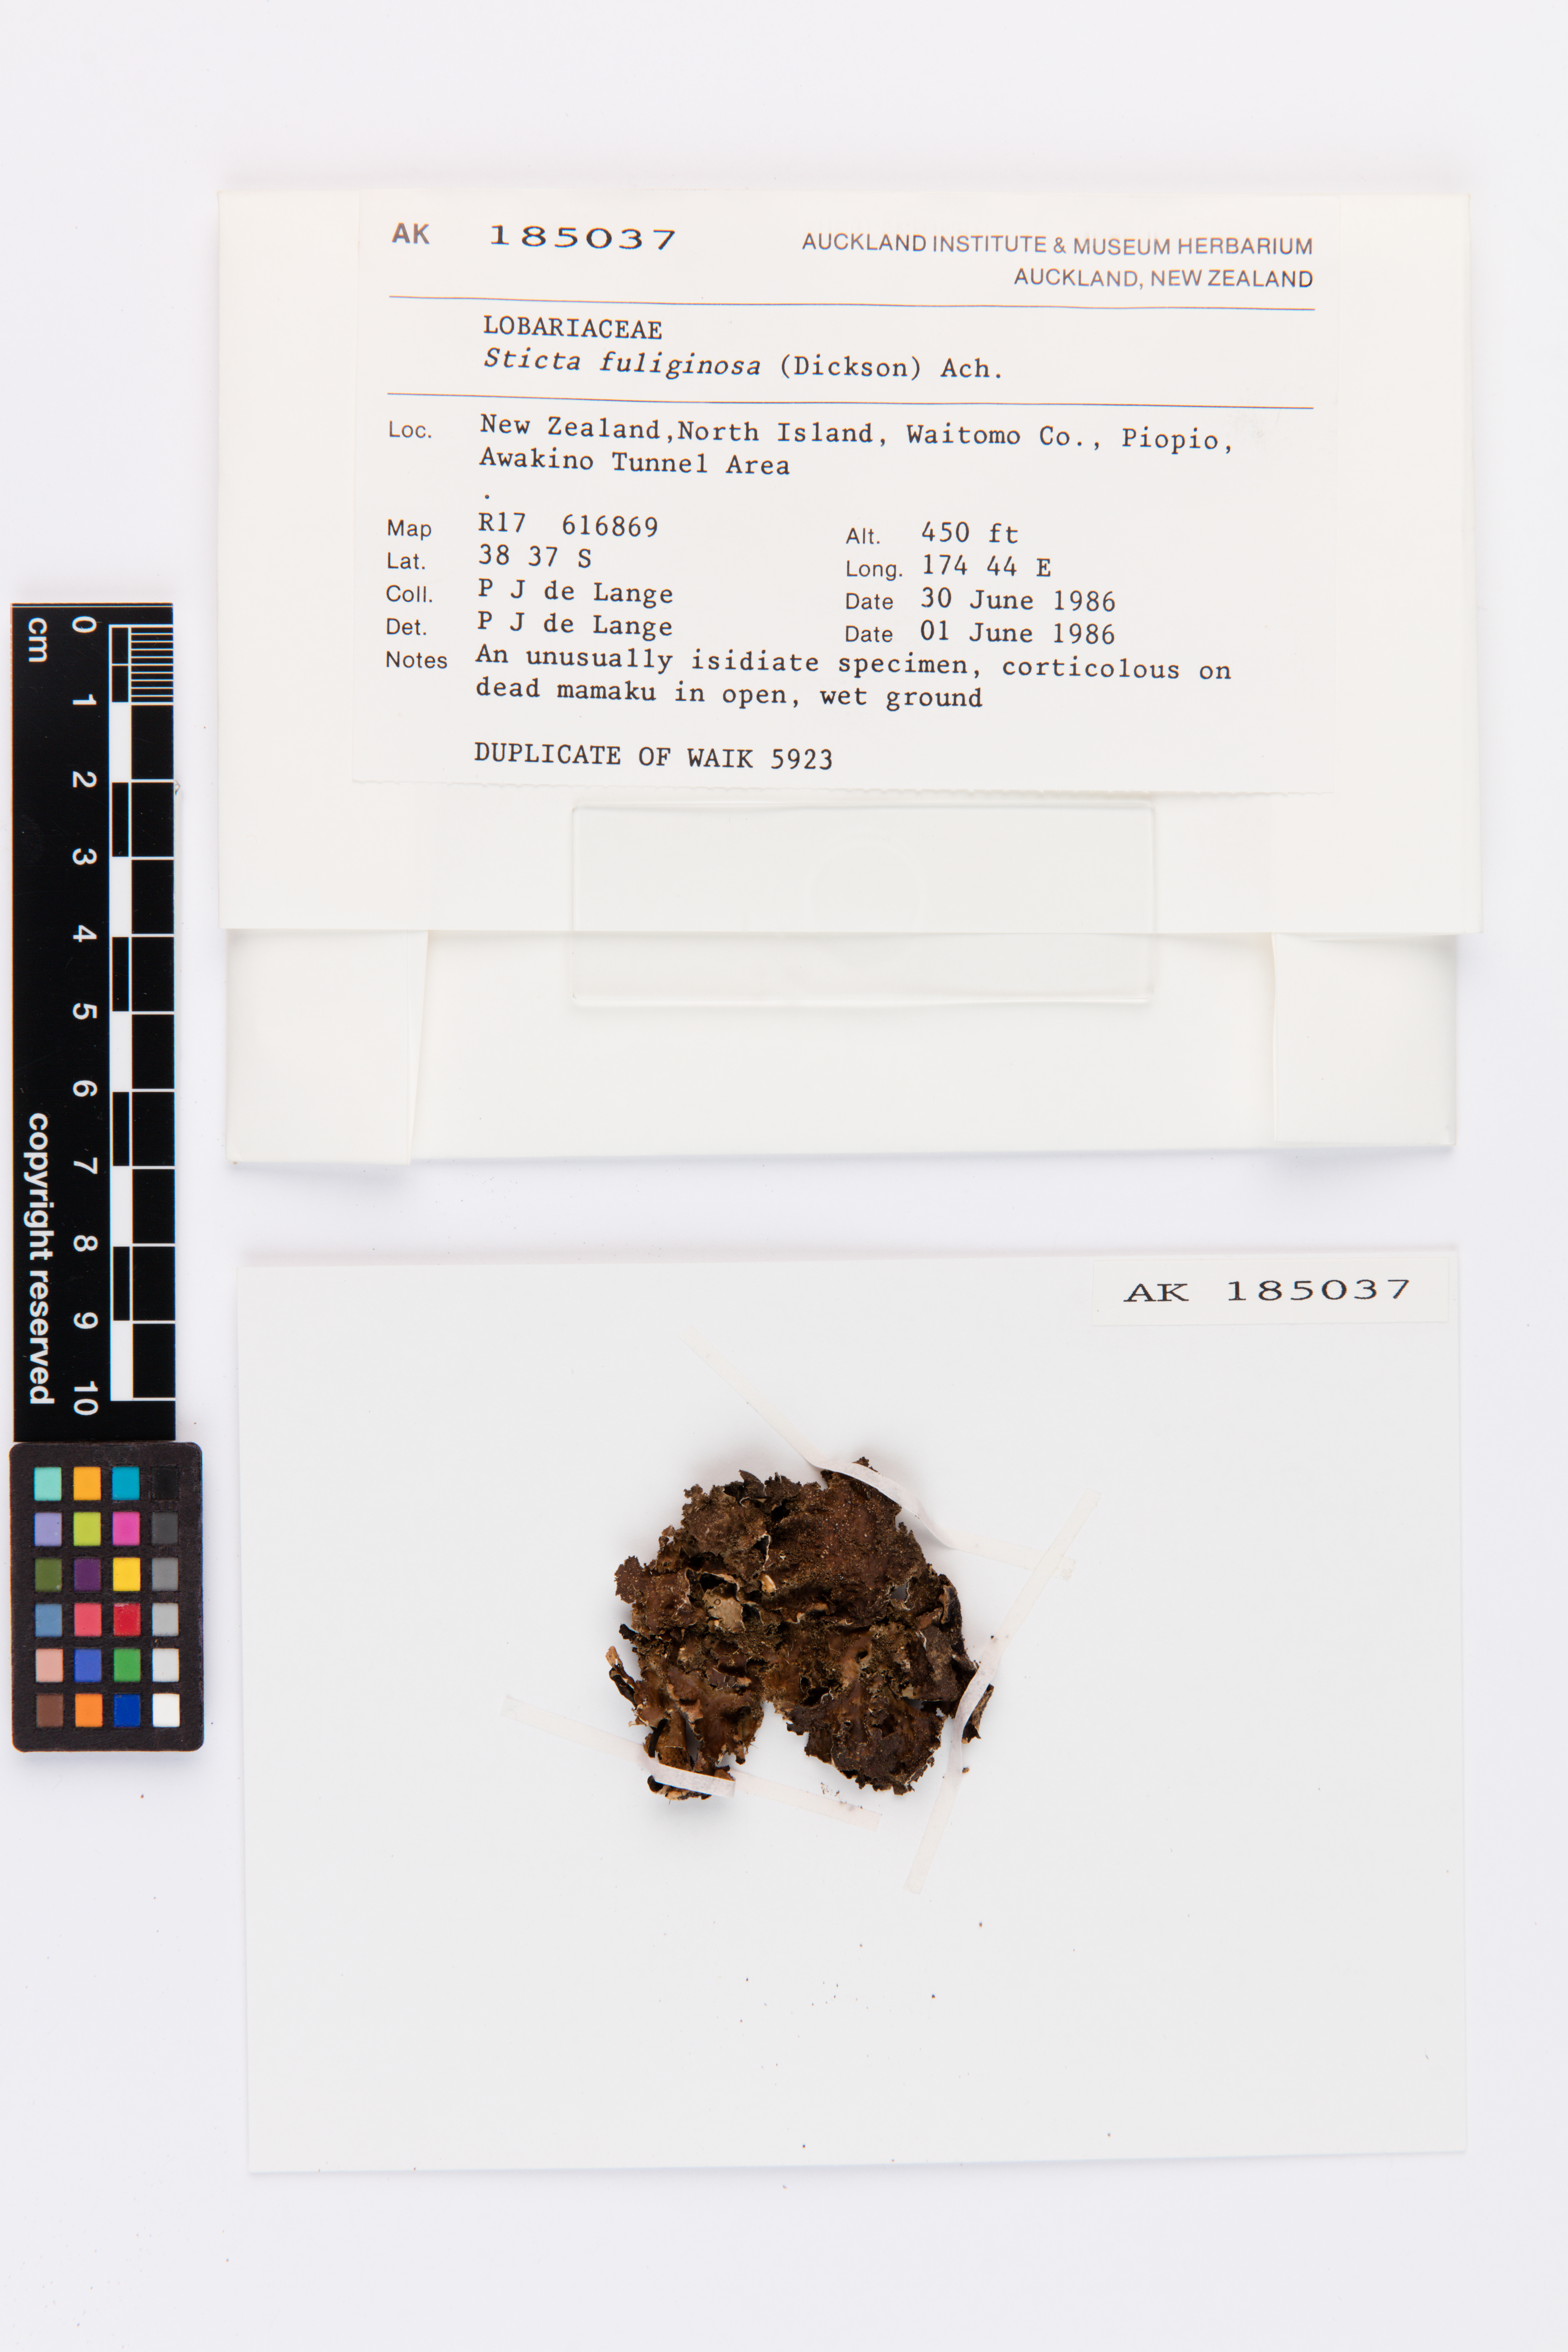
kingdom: Fungi
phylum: Ascomycota
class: Lecanoromycetes
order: Peltigerales
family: Lobariaceae
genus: Sticta
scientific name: Sticta fuliginosa
